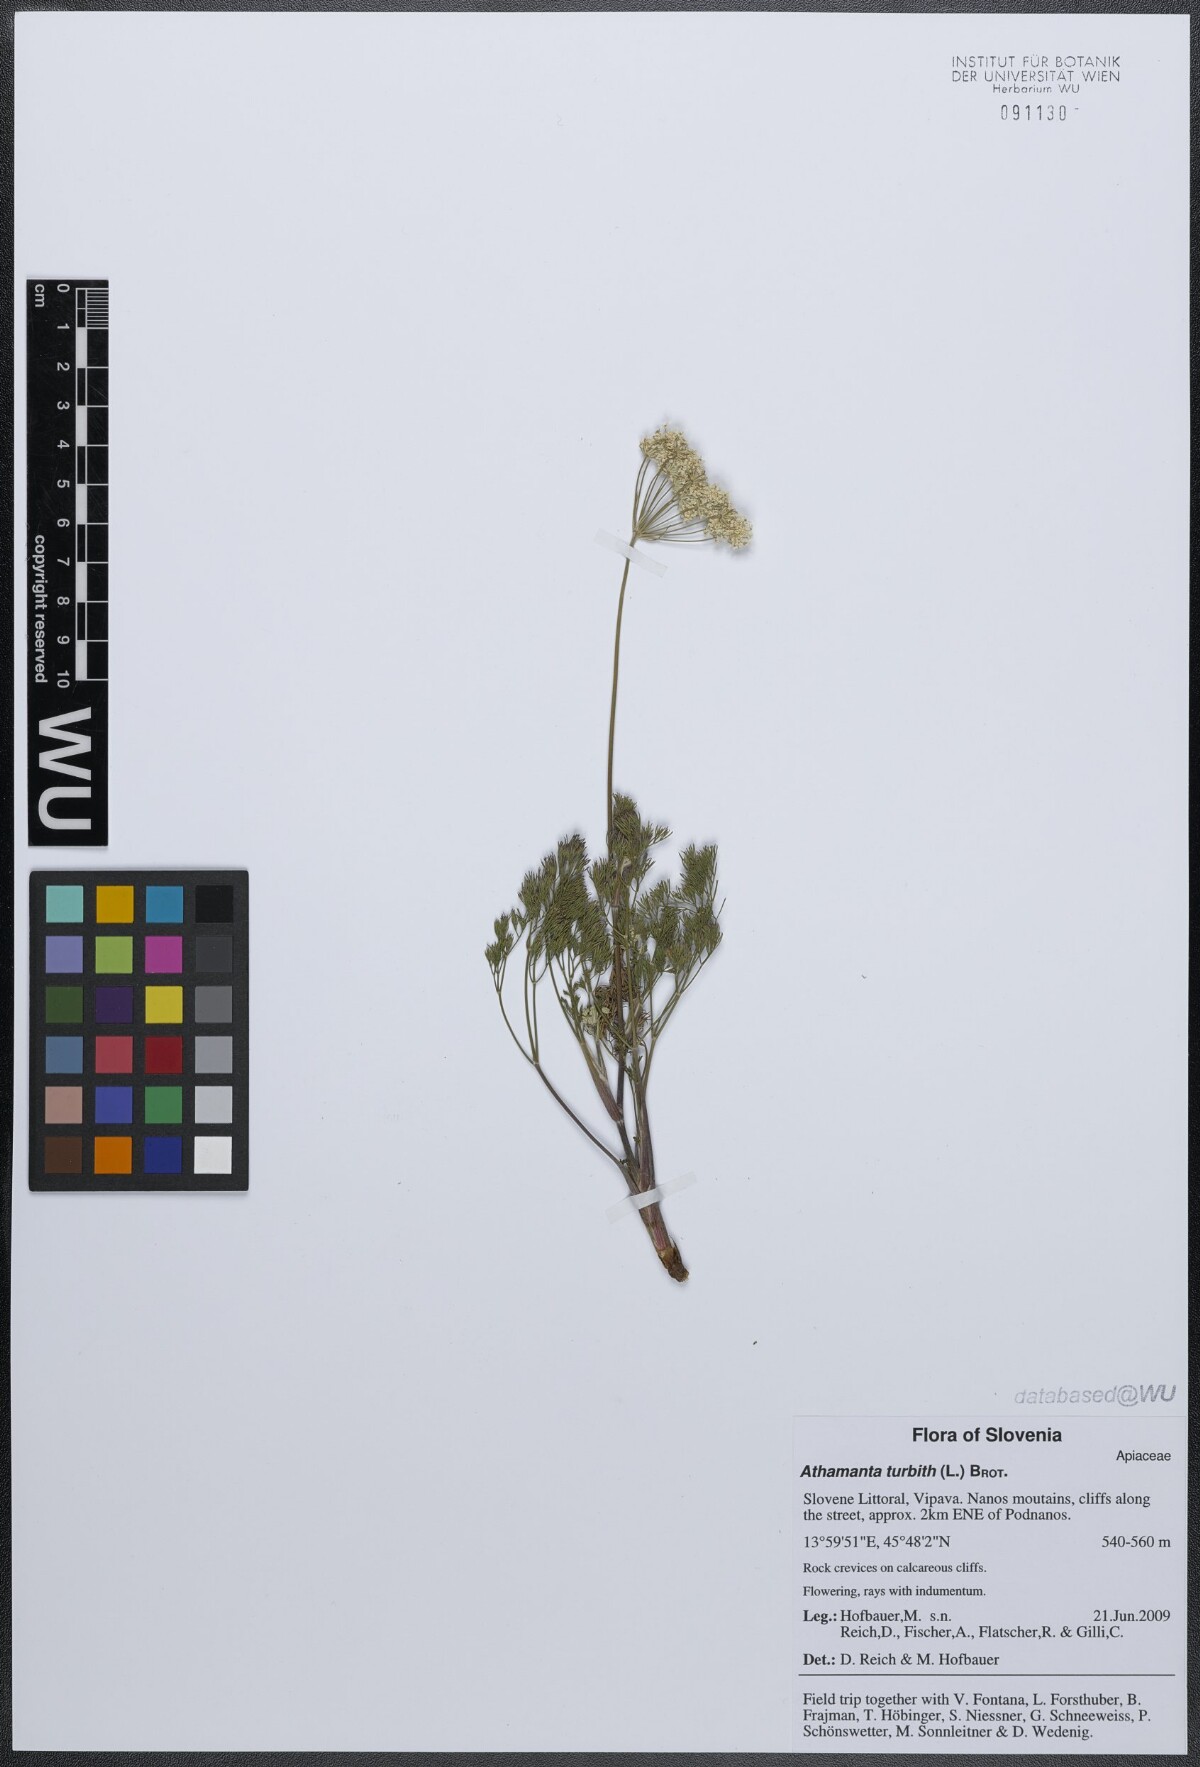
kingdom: Plantae
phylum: Tracheophyta
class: Magnoliopsida
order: Apiales
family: Apiaceae
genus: Athamanta
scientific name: Athamanta turbith
